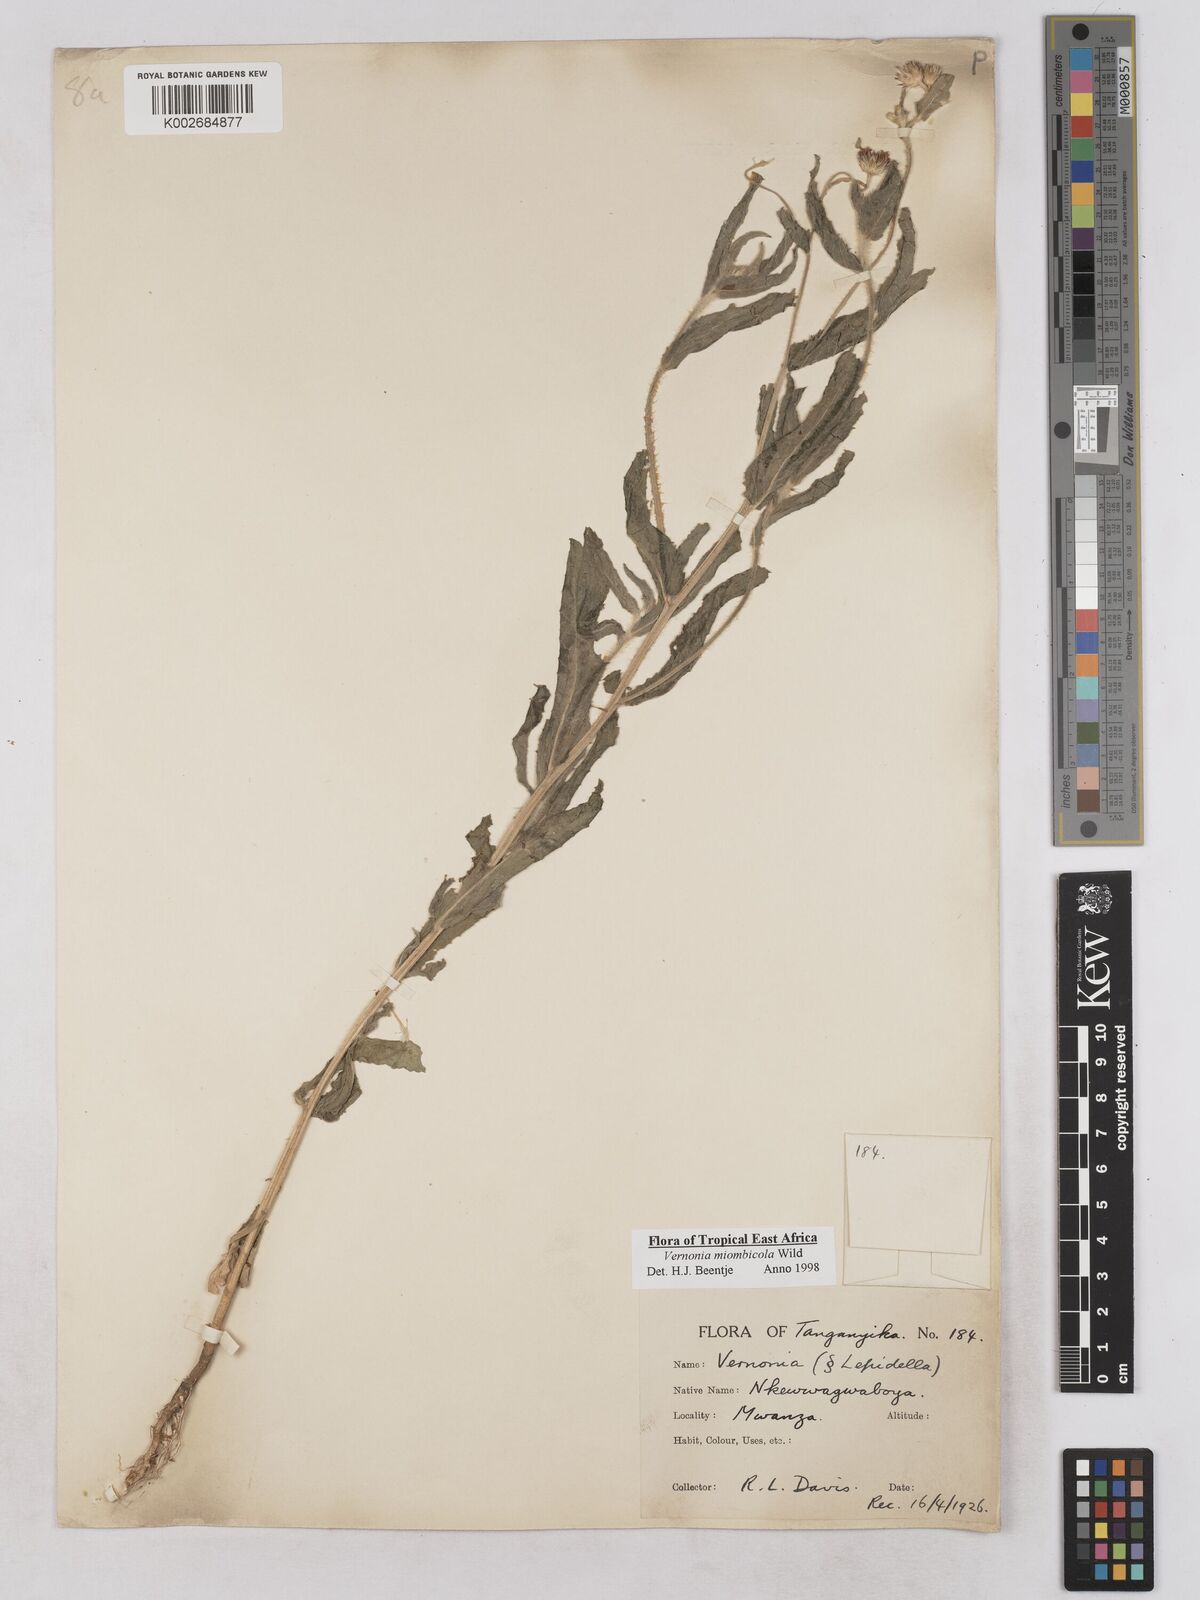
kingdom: Plantae
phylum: Tracheophyta
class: Magnoliopsida
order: Asterales
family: Asteraceae
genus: Vernonia
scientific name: Vernonia miombicola
